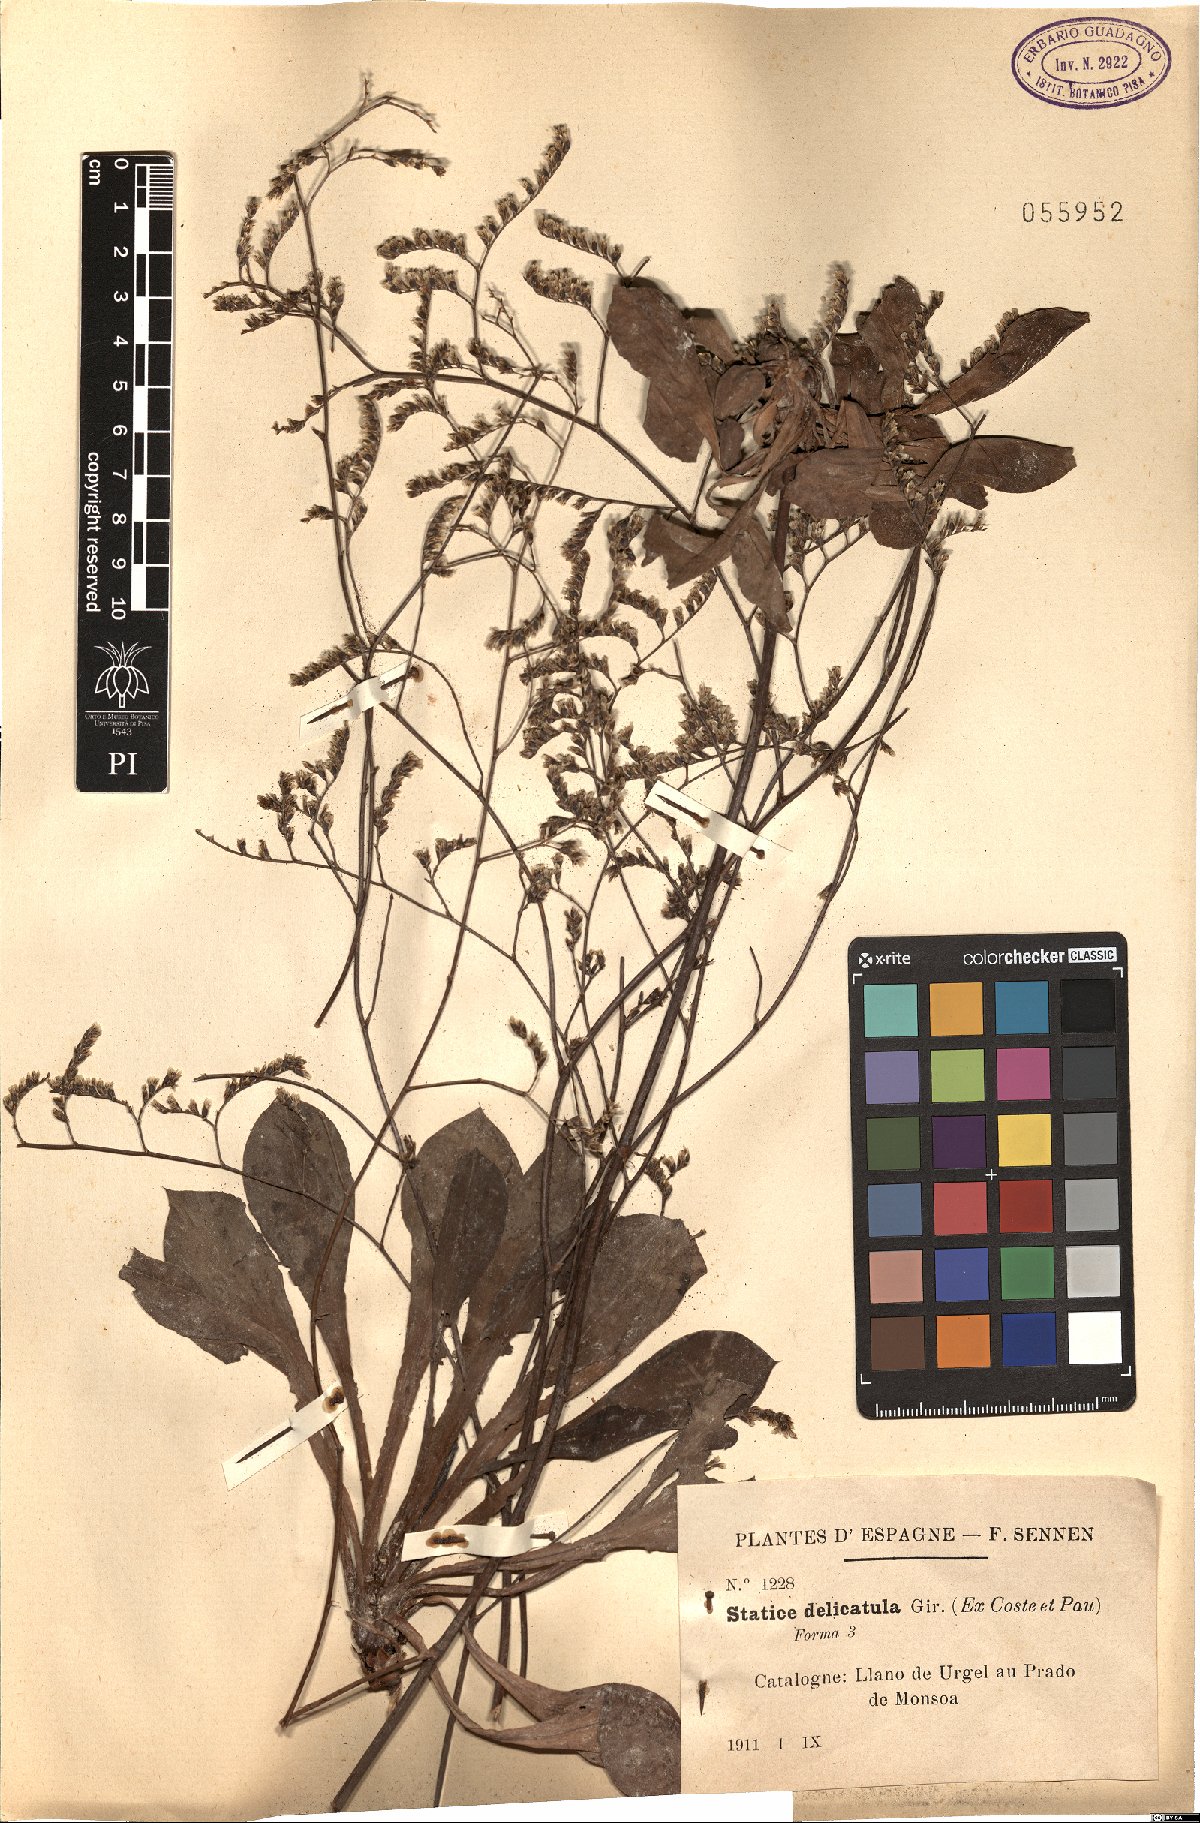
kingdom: Plantae
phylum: Tracheophyta
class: Magnoliopsida
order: Caryophyllales
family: Plumbaginaceae
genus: Limonium
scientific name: Limonium delicatulum
